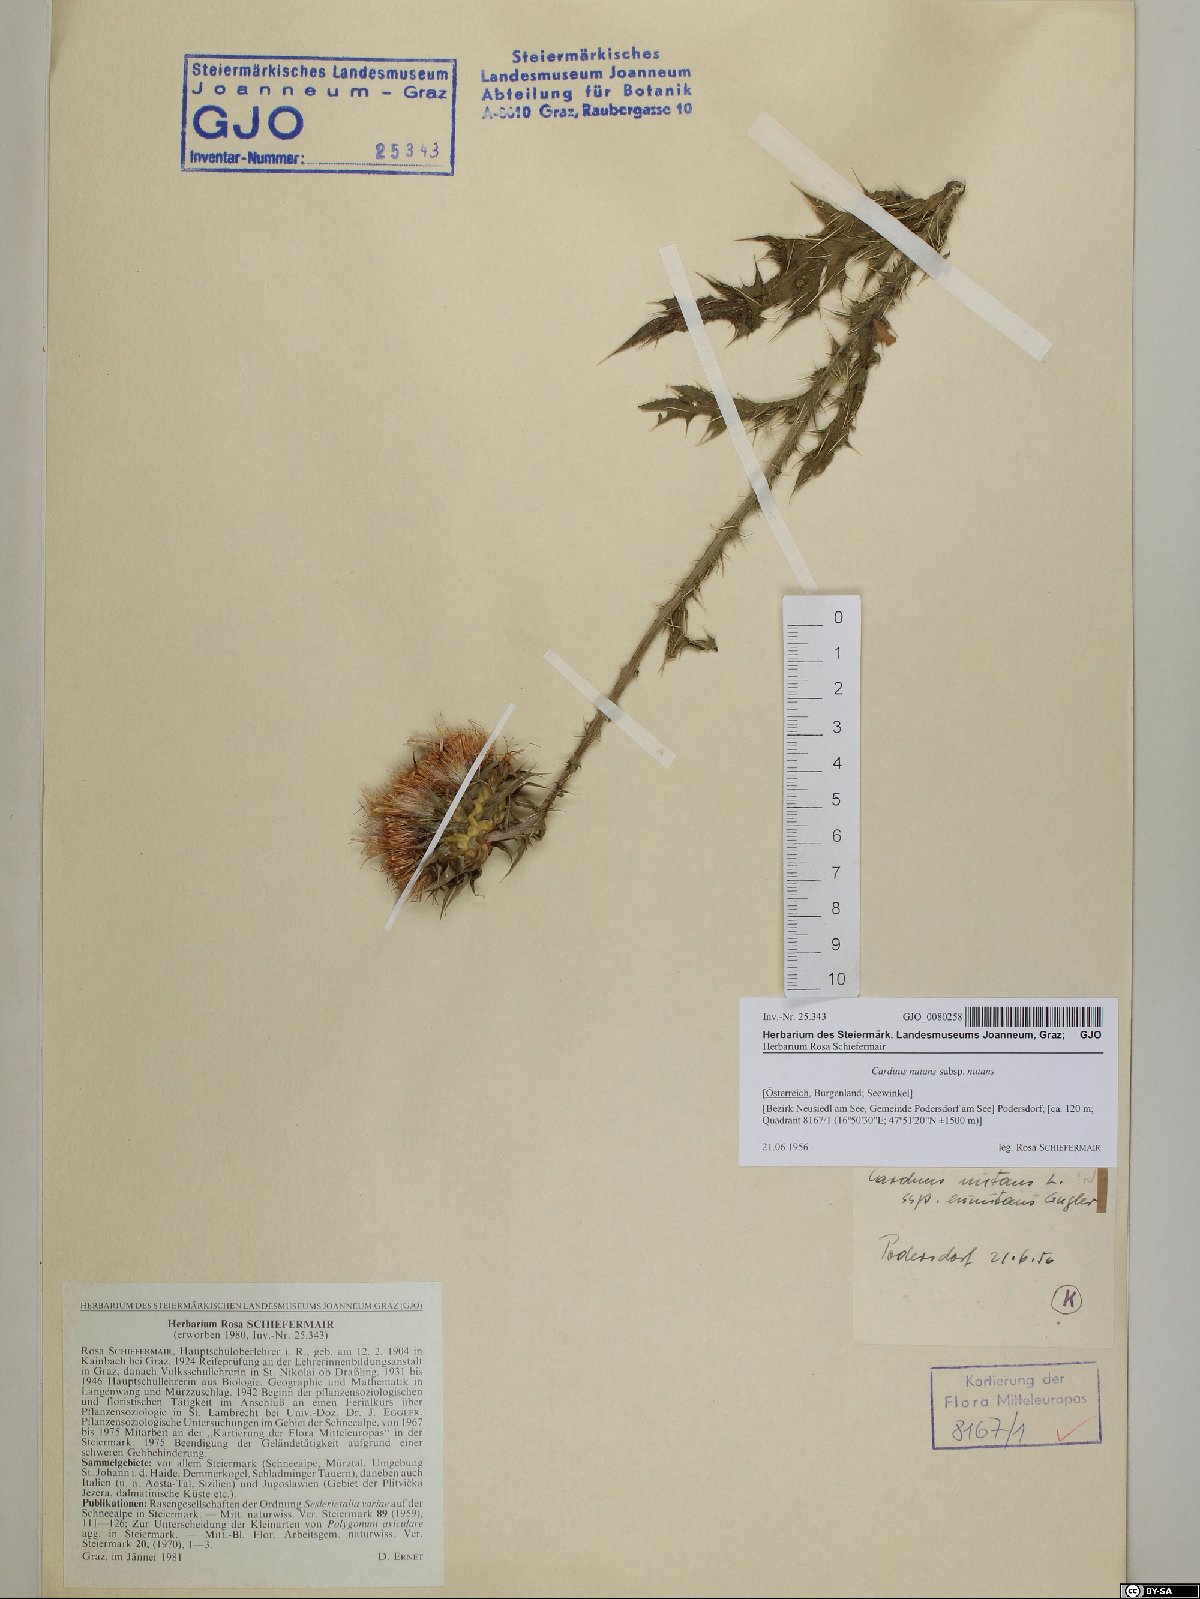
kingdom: Plantae
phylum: Tracheophyta
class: Magnoliopsida
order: Asterales
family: Asteraceae
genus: Carduus
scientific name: Carduus nutans
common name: Musk thistle
